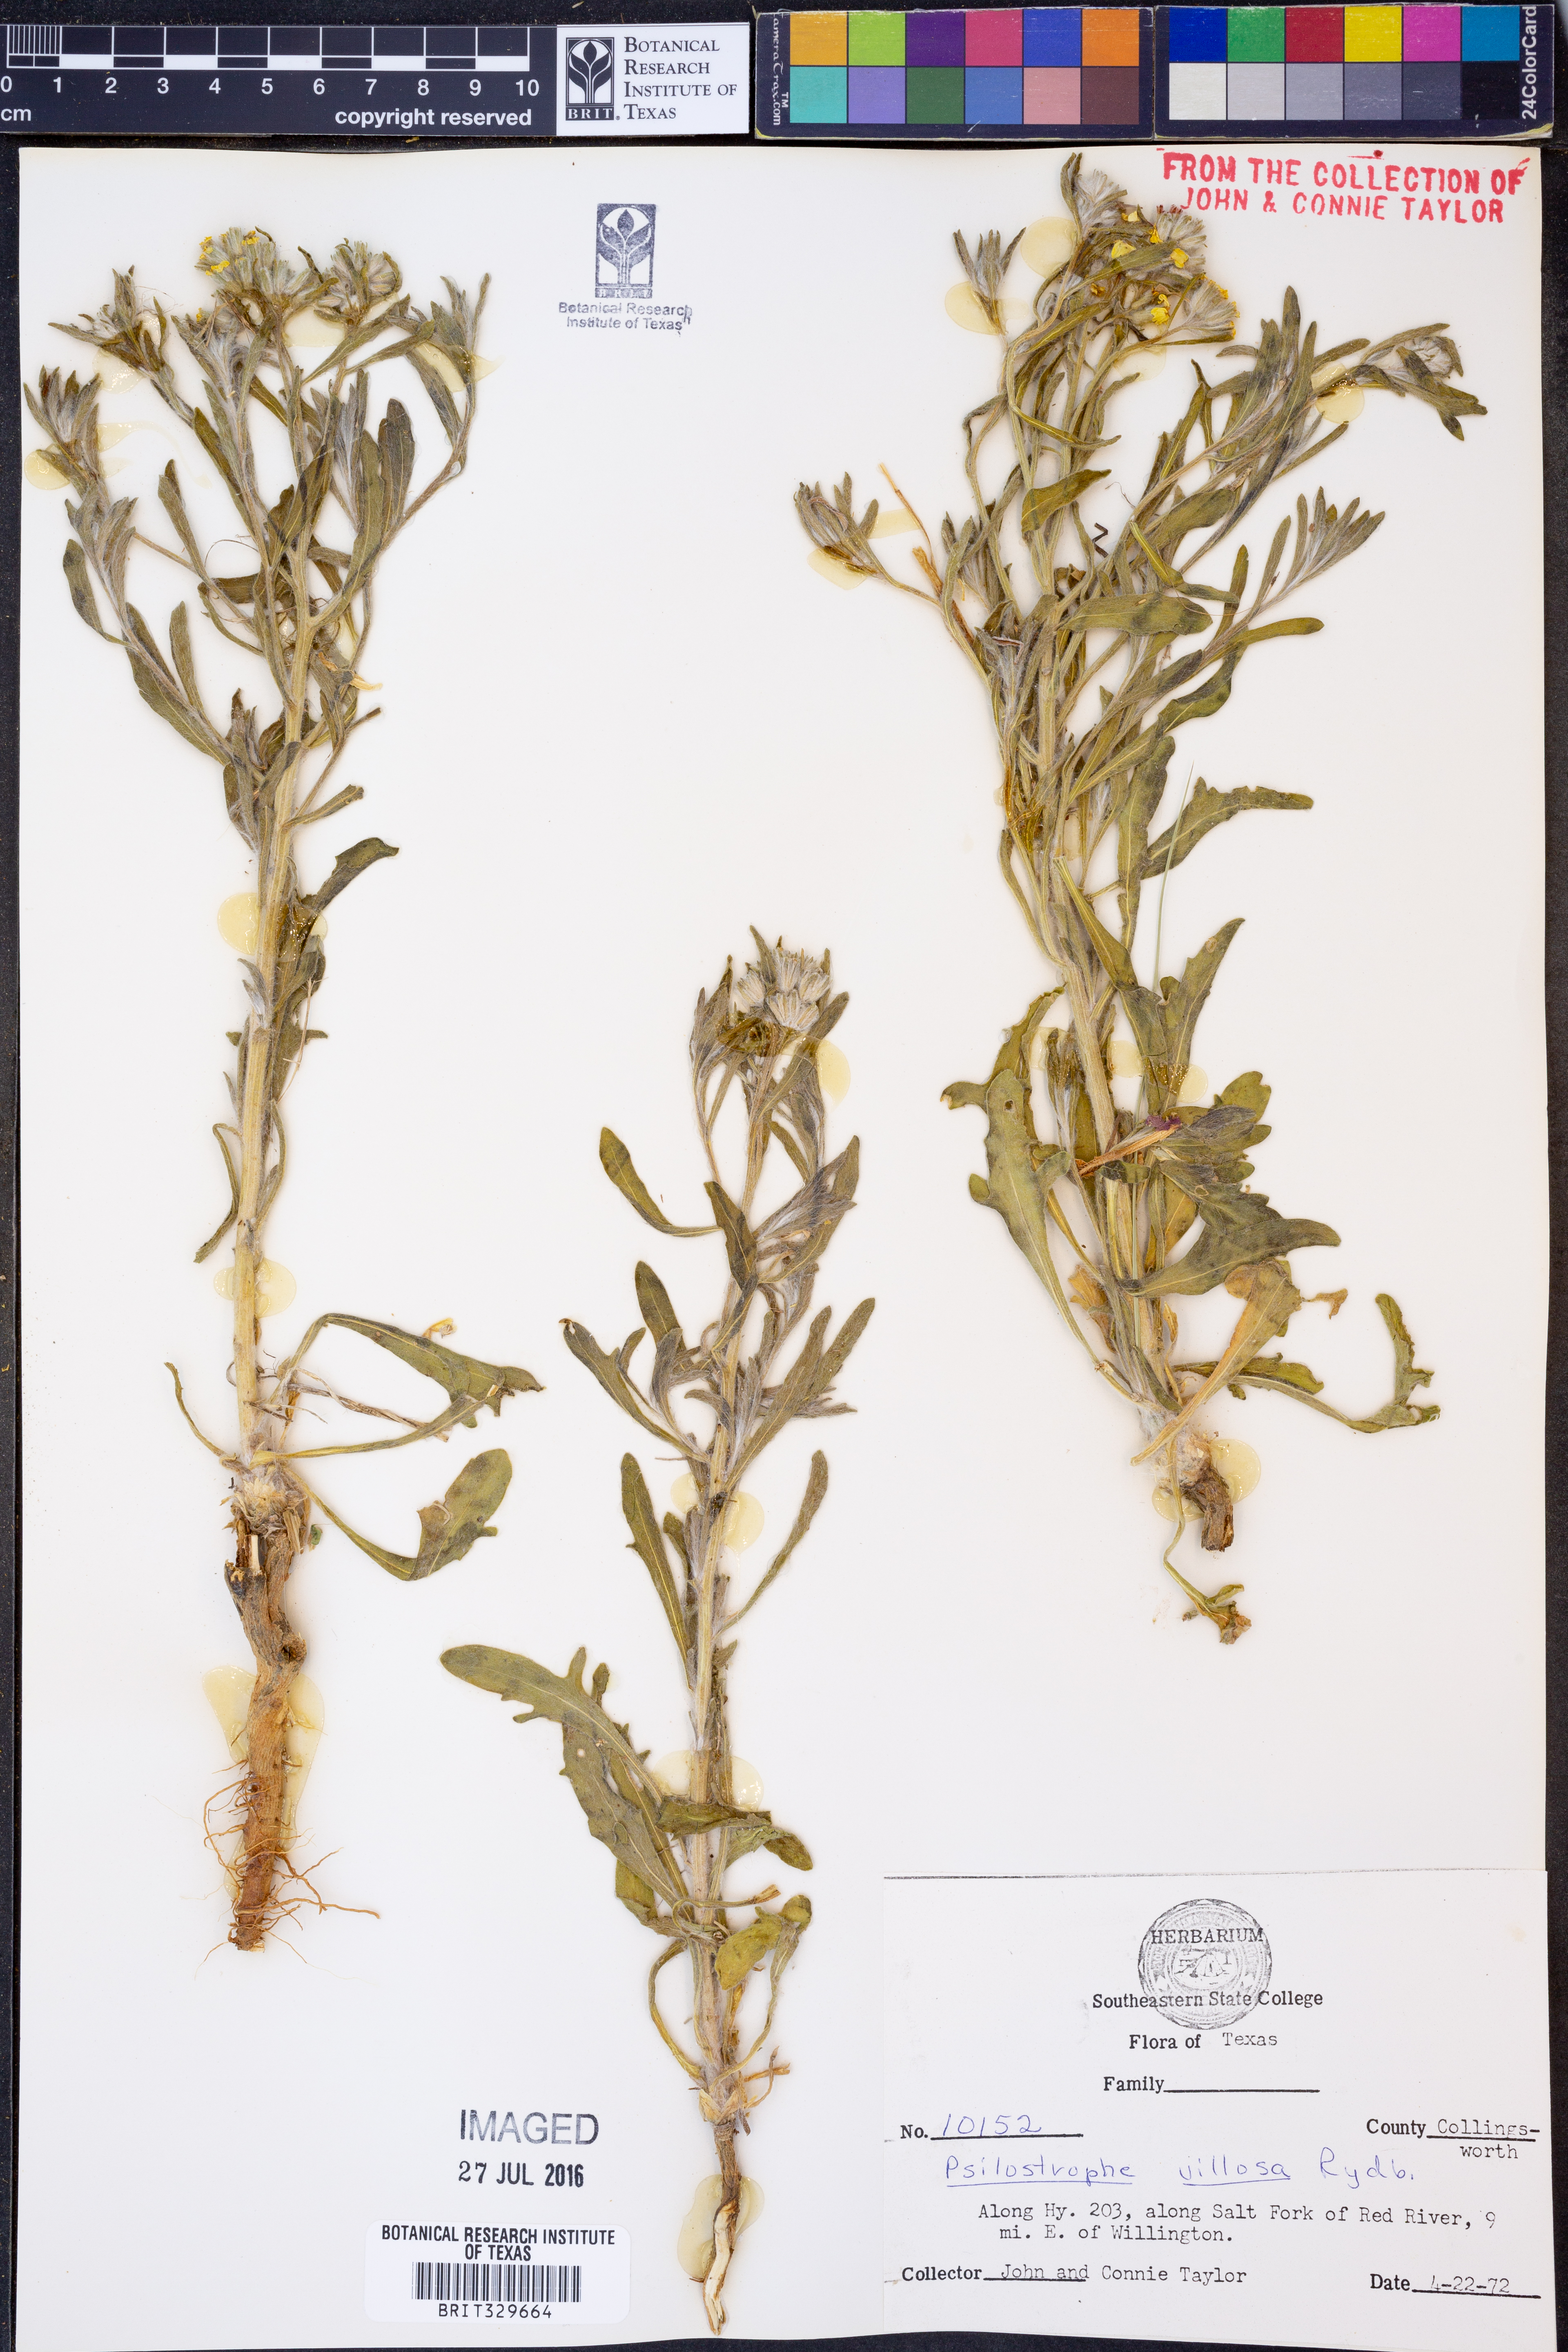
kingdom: Plantae
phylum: Tracheophyta
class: Magnoliopsida
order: Asterales
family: Asteraceae
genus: Psilostrophe
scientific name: Psilostrophe villosa
